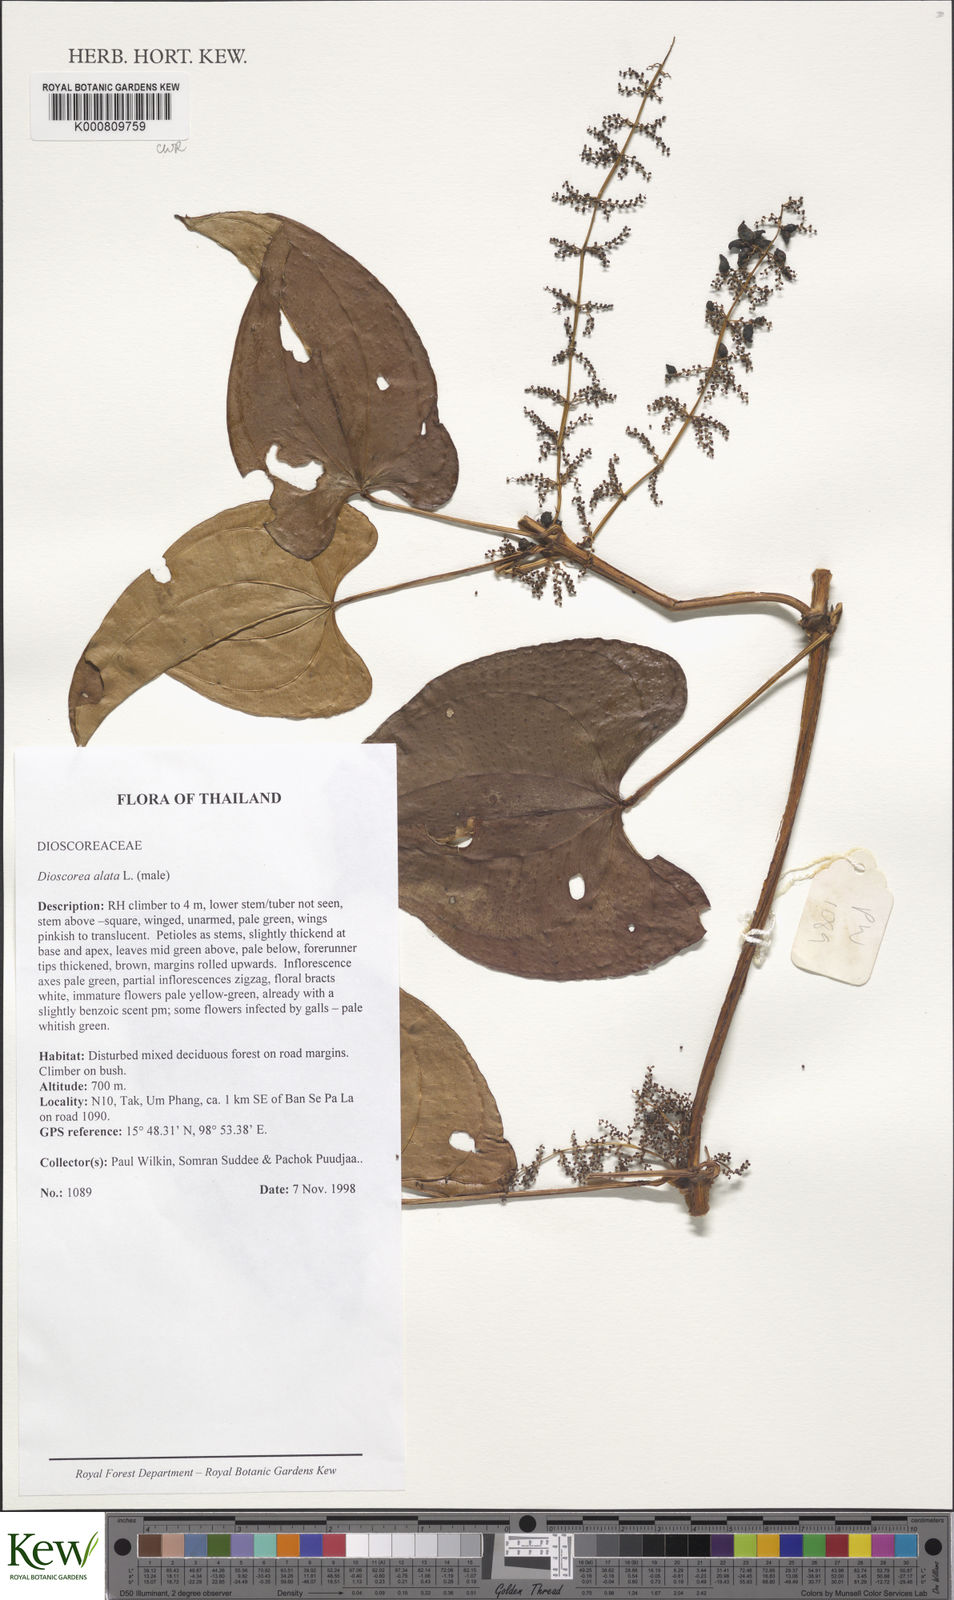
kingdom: Plantae
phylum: Tracheophyta
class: Liliopsida
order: Dioscoreales
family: Dioscoreaceae
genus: Dioscorea
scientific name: Dioscorea alata
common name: Water yam
